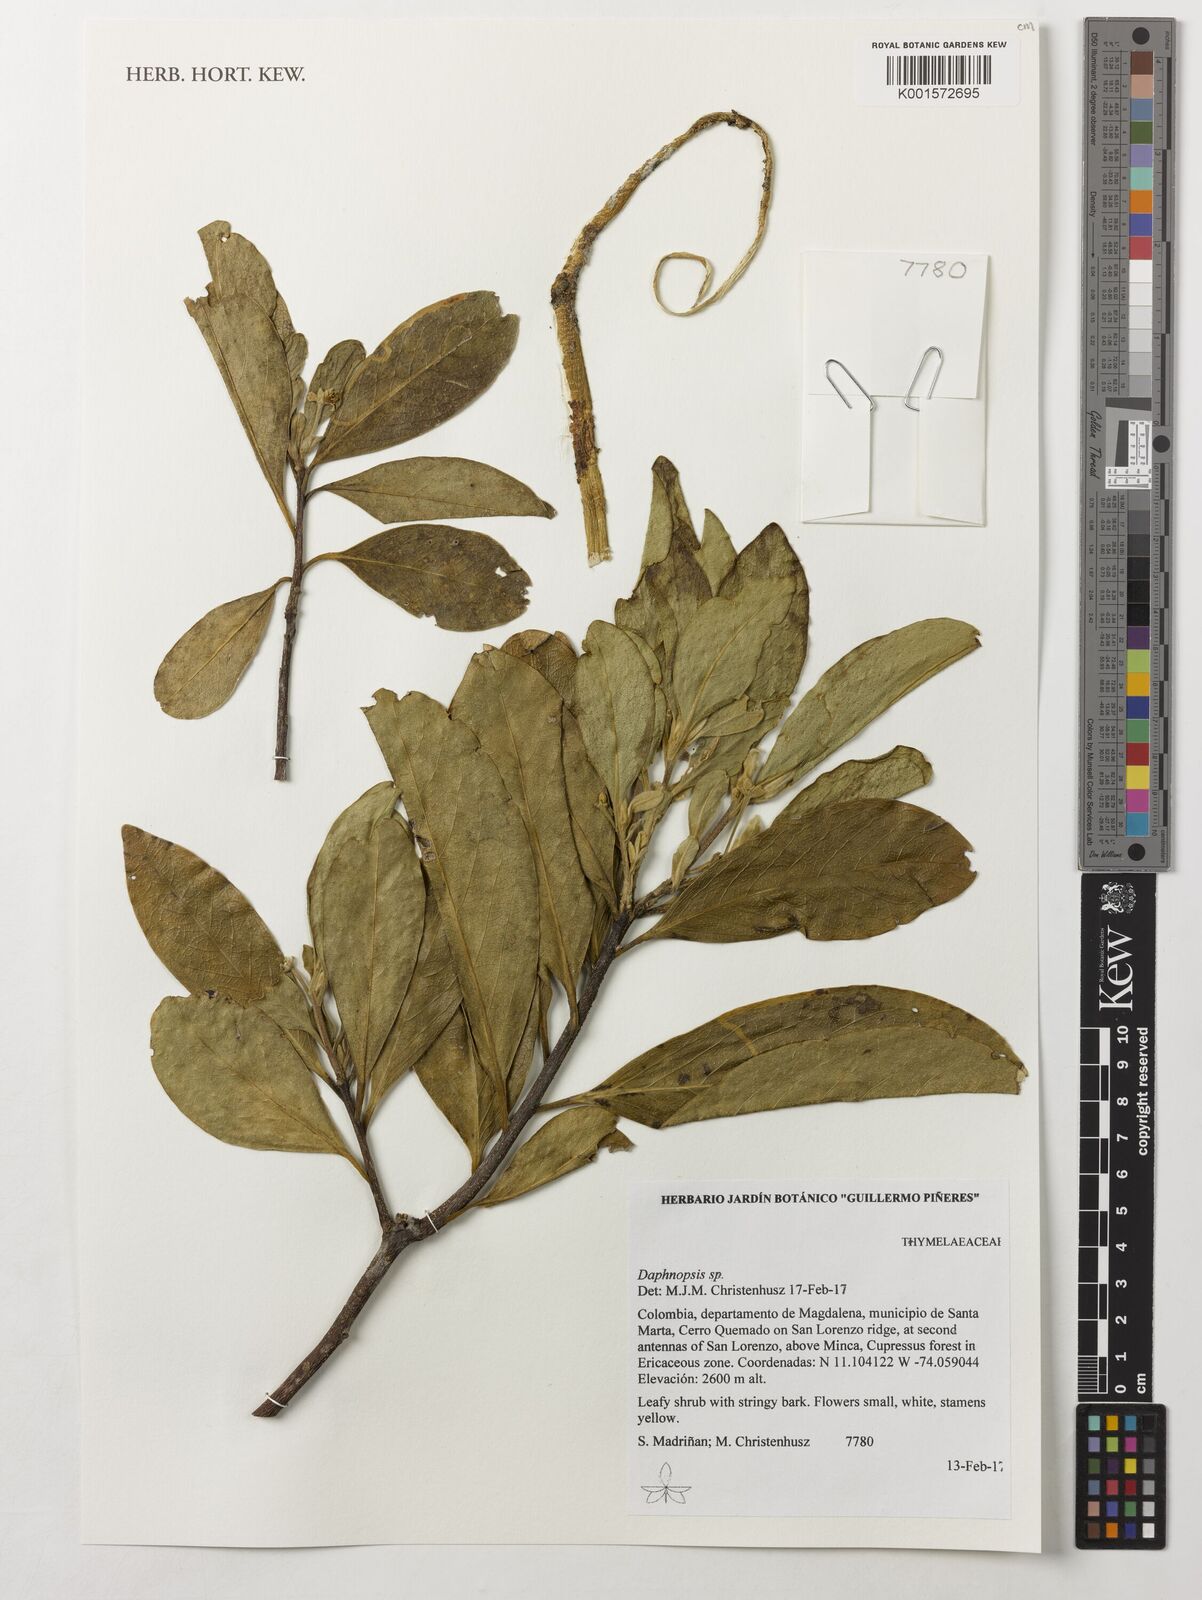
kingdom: Plantae
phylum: Tracheophyta
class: Magnoliopsida
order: Malvales
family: Thymelaeaceae
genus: Daphnopsis
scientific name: Daphnopsis
